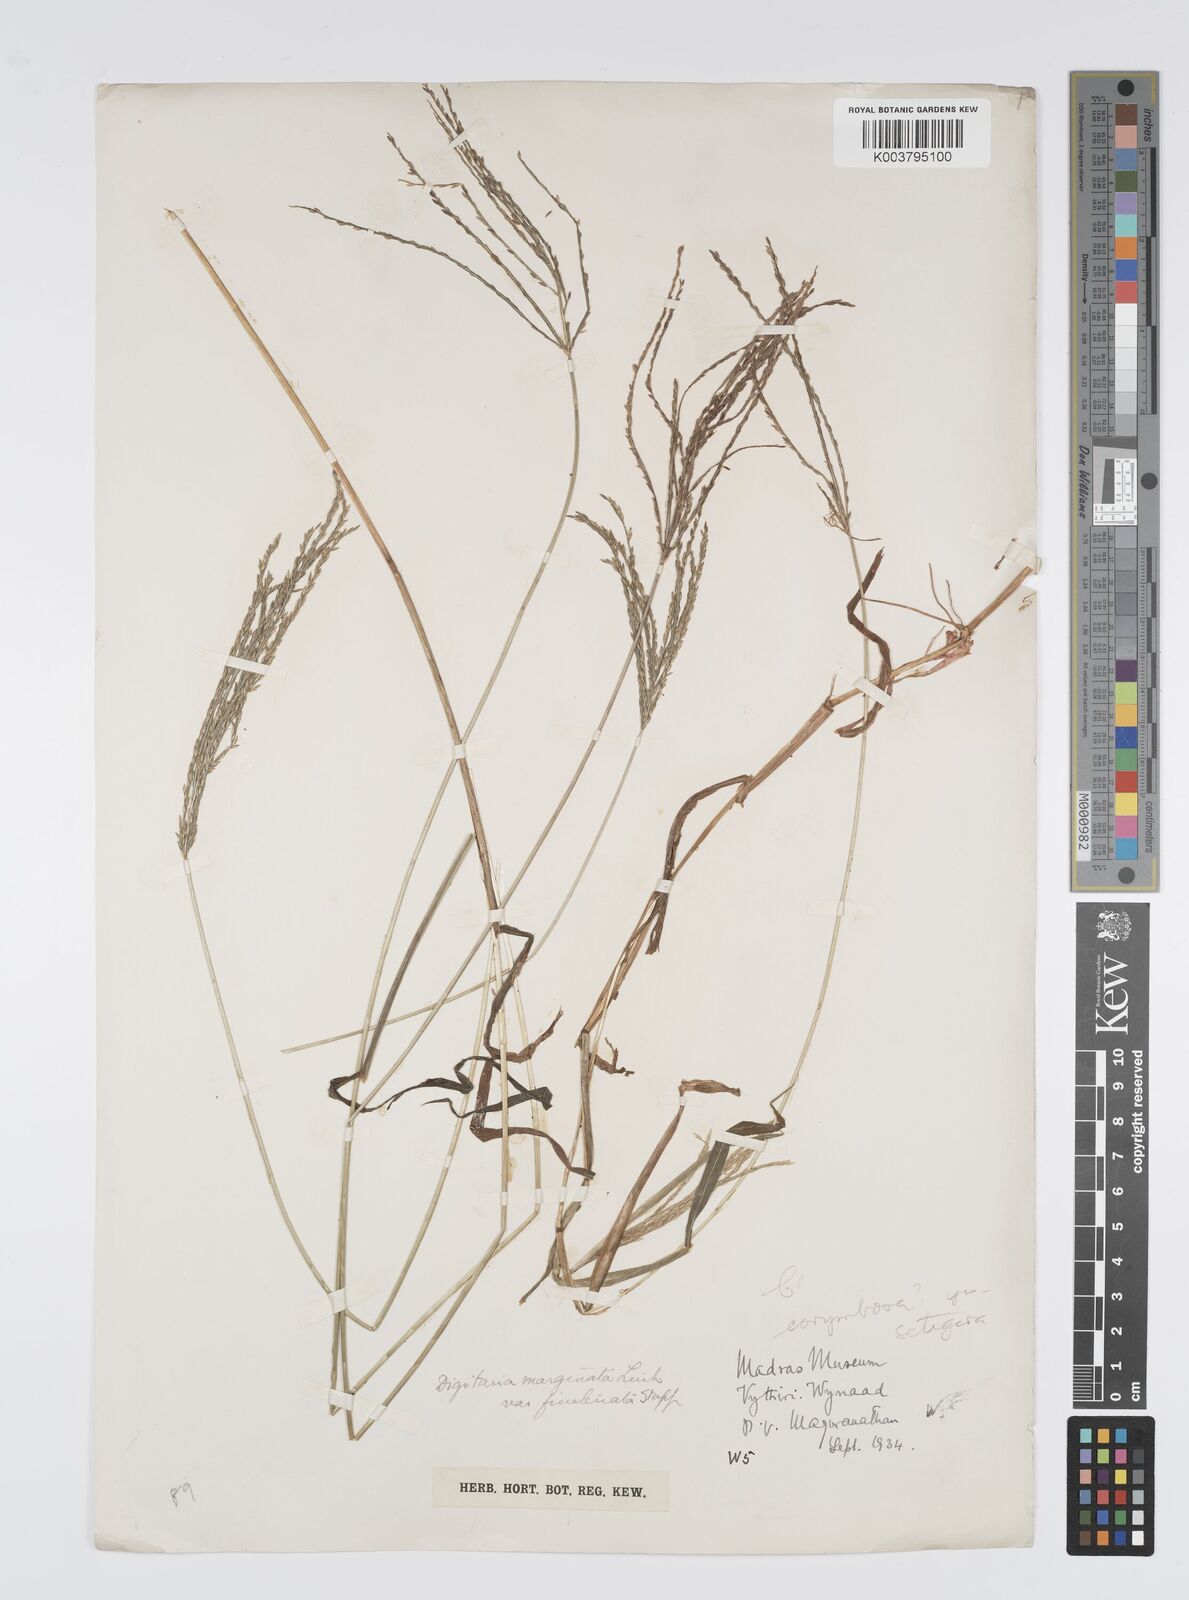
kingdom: Plantae
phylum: Tracheophyta
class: Liliopsida
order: Poales
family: Poaceae
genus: Digitaria
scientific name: Digitaria setigera
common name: East indian crabgrass
